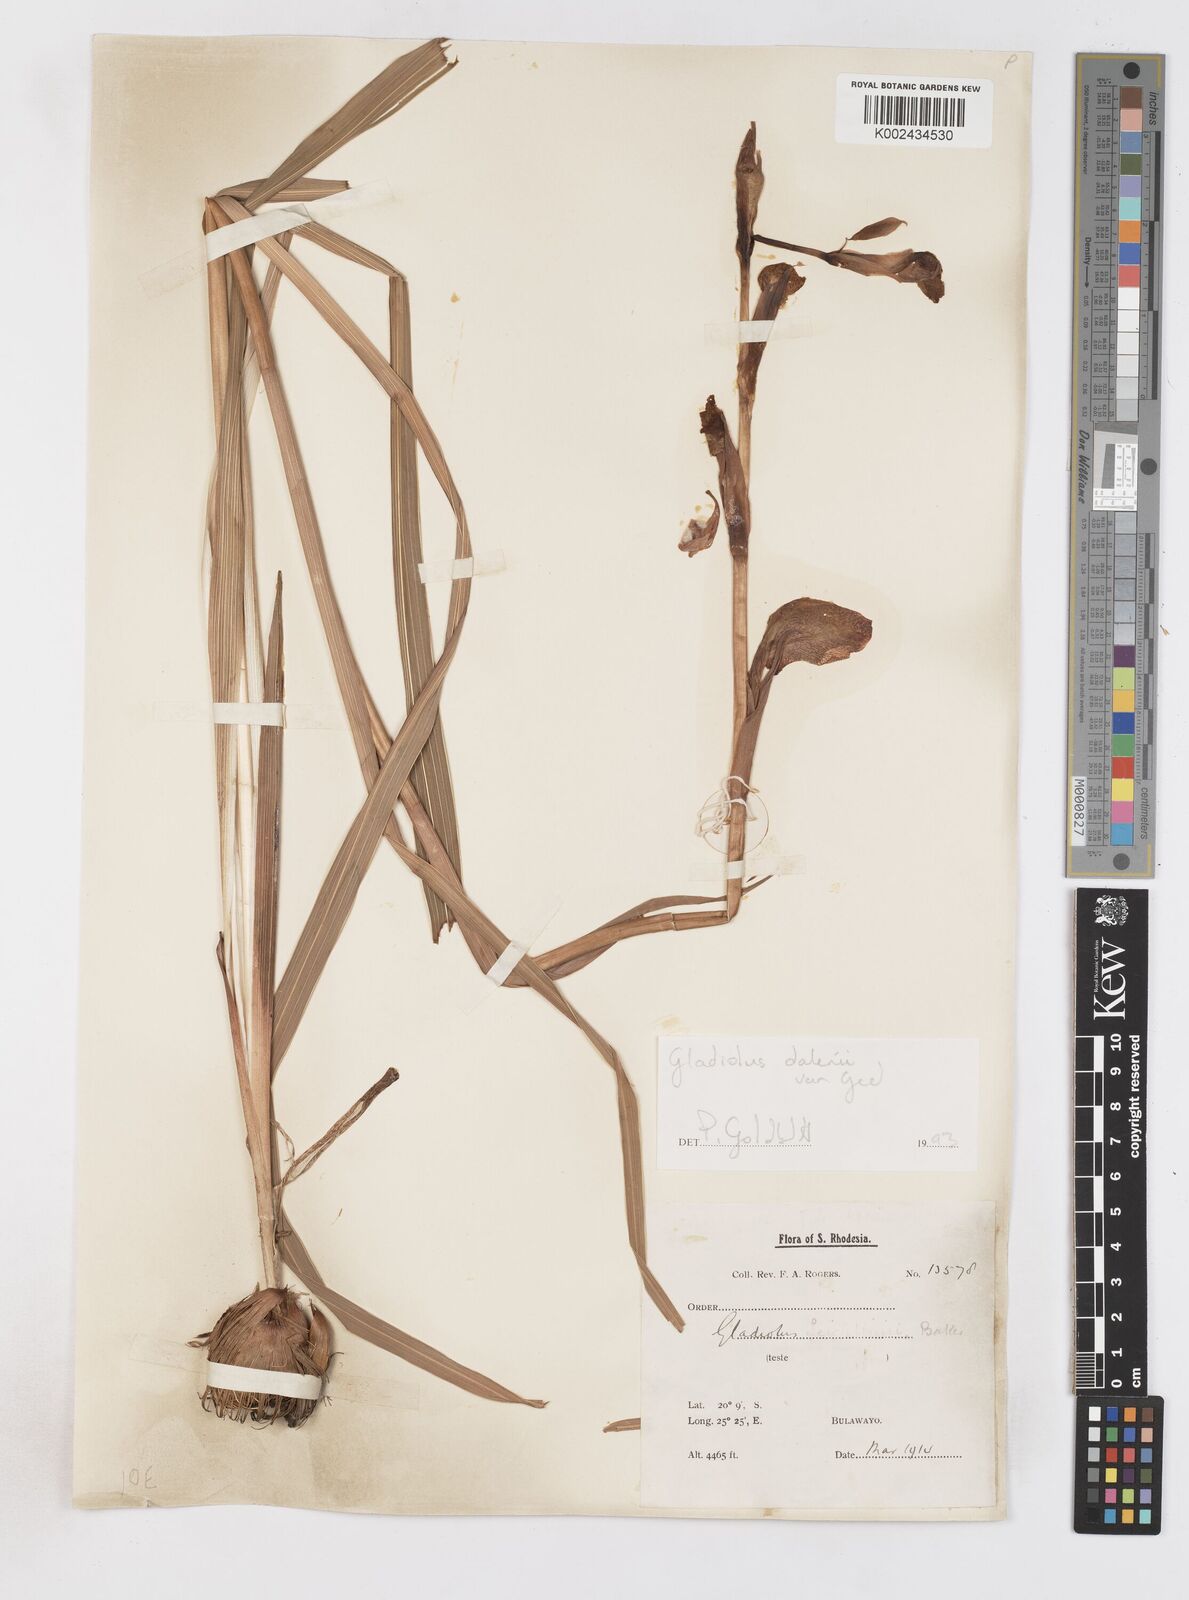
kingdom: Plantae
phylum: Tracheophyta
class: Liliopsida
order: Asparagales
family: Iridaceae
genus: Gladiolus
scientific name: Gladiolus dalenii
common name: Cornflag
